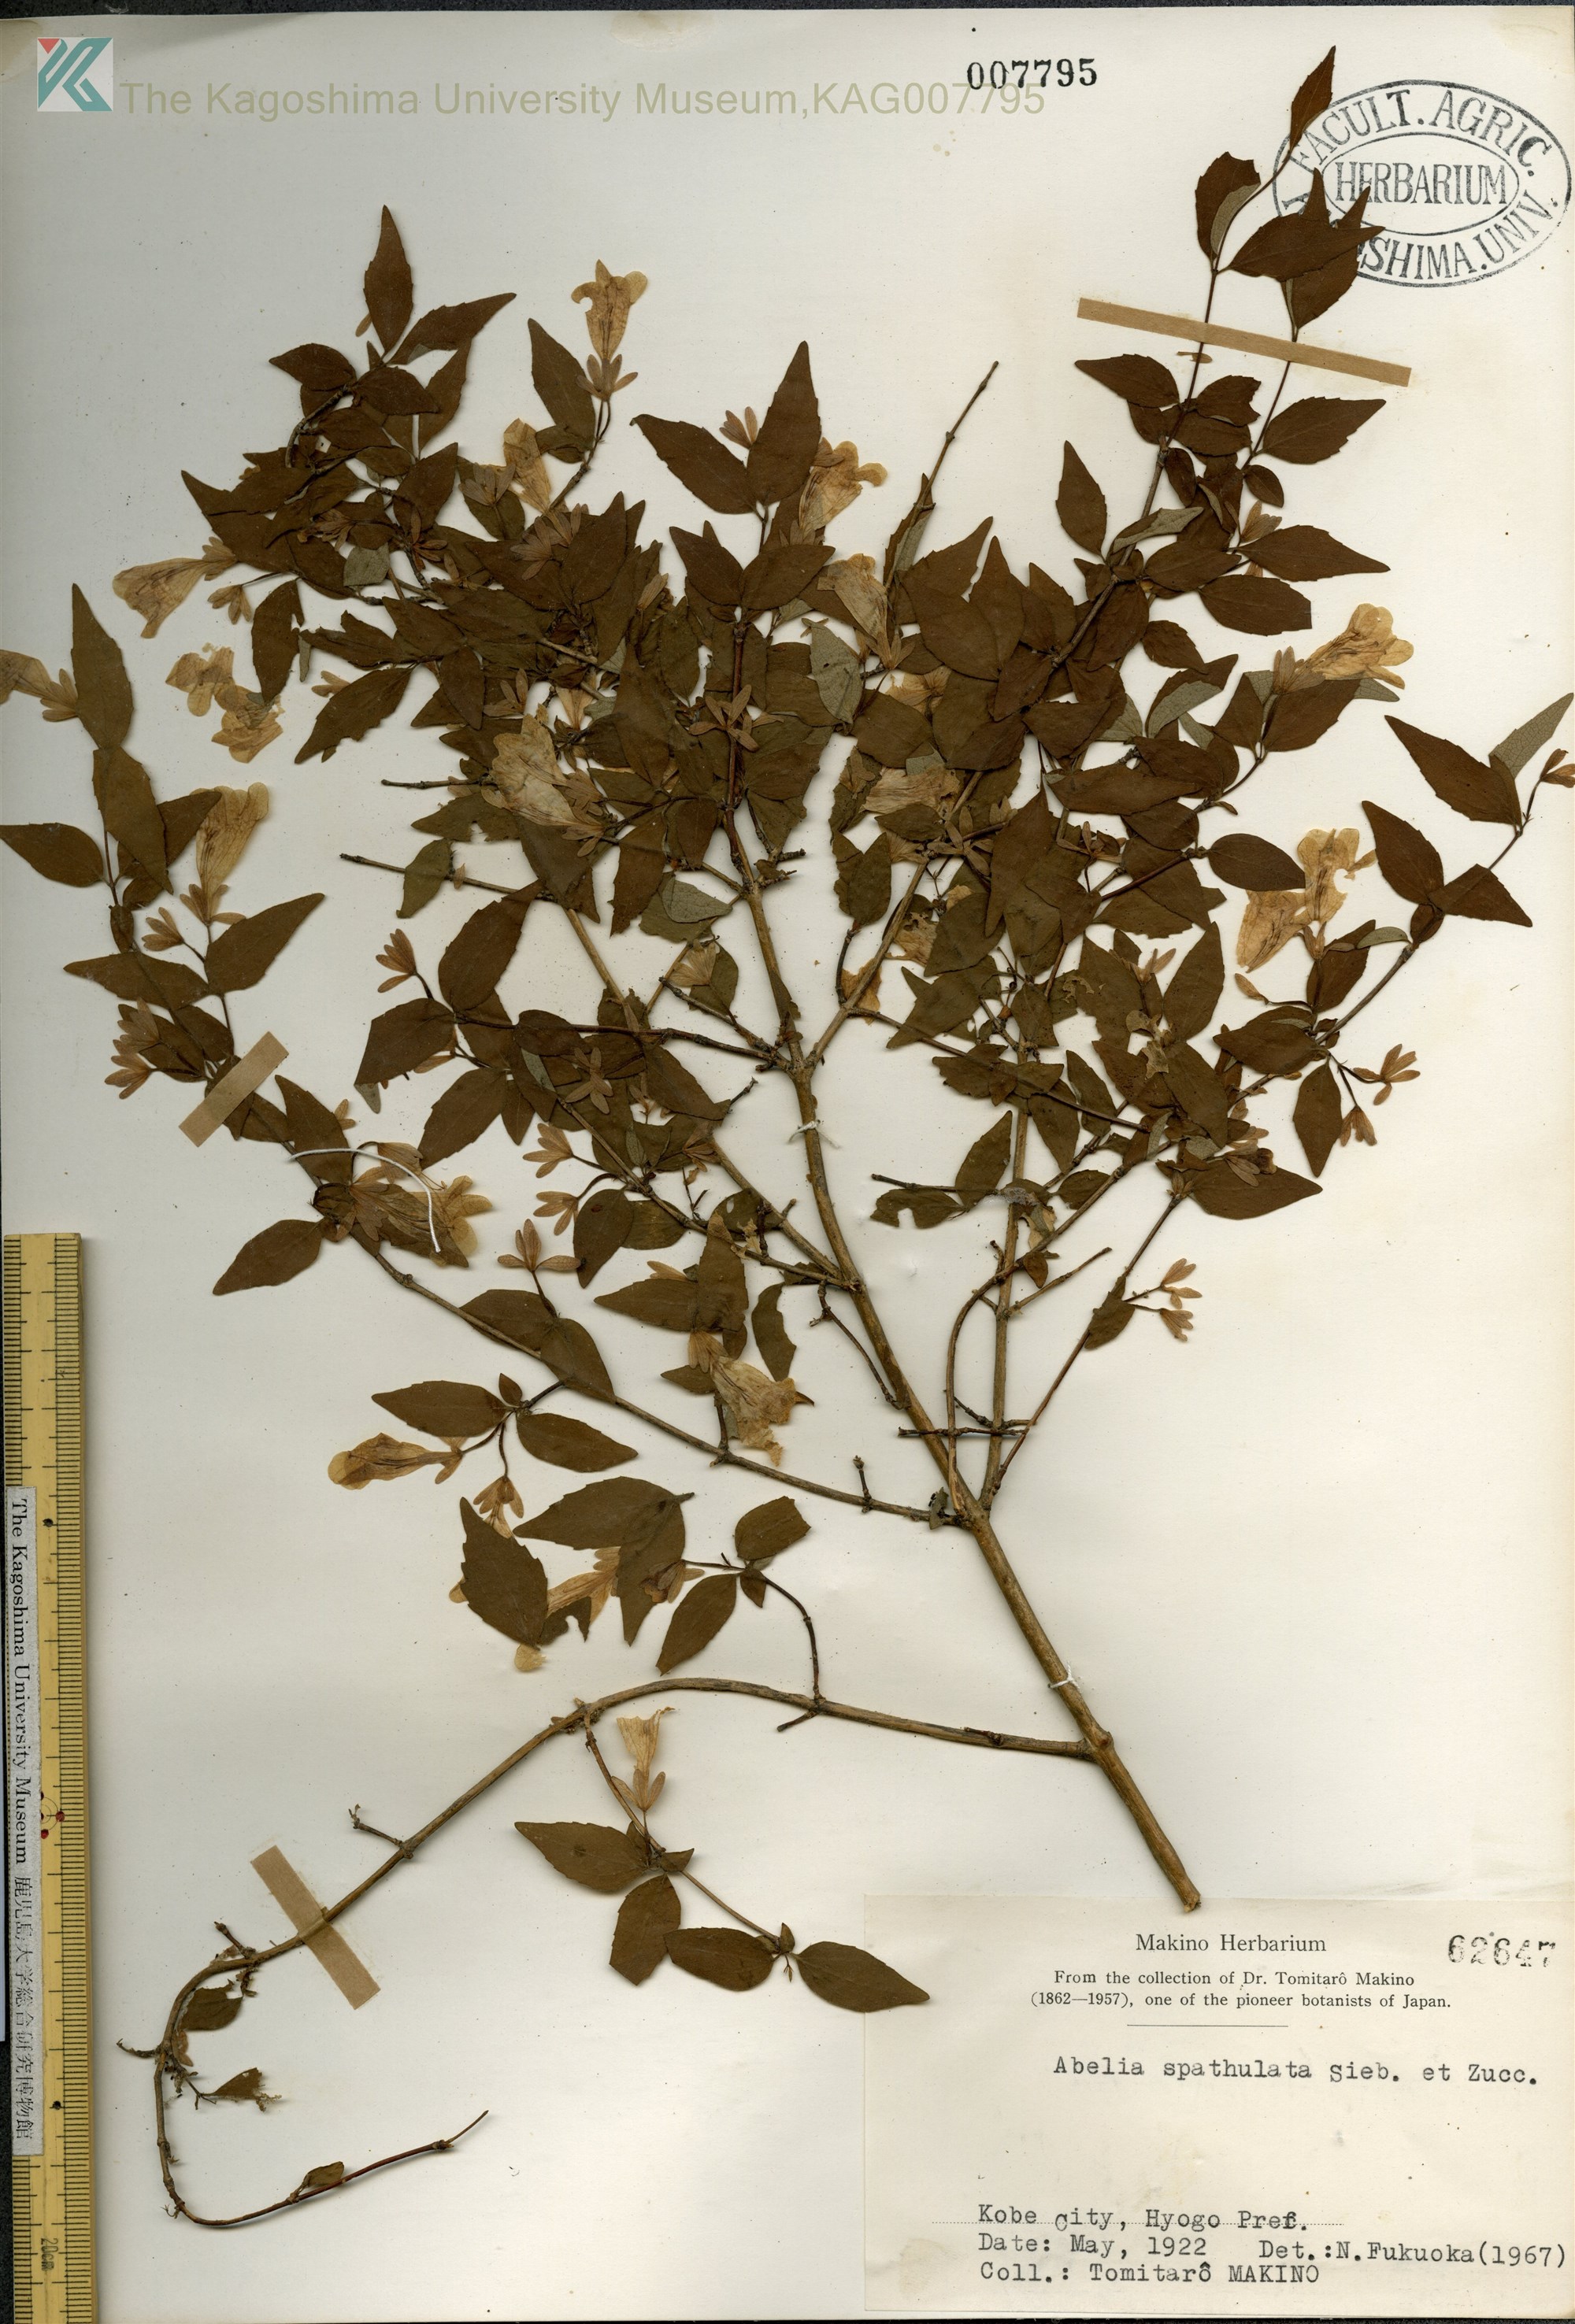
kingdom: Plantae
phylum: Tracheophyta
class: Magnoliopsida
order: Dipsacales
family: Caprifoliaceae
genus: Diabelia
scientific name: Diabelia spathulata
